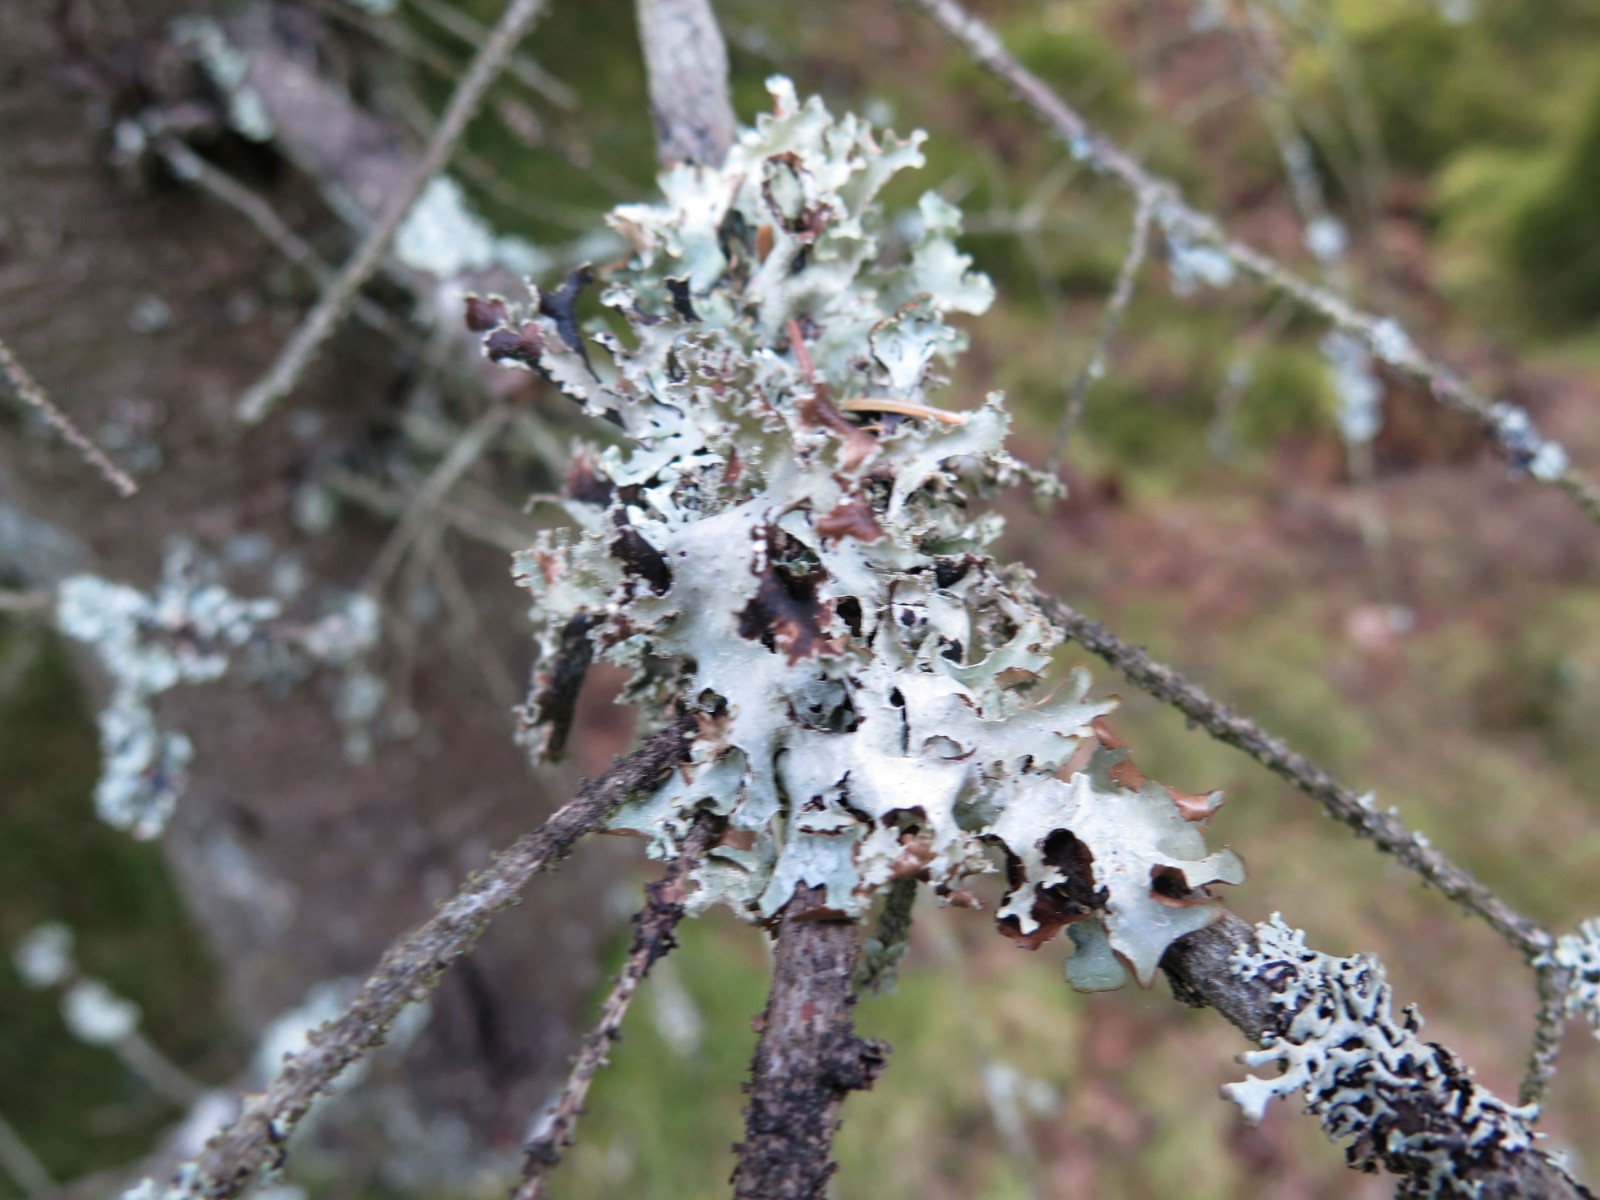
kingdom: Fungi
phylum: Ascomycota
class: Lecanoromycetes
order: Lecanorales
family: Parmeliaceae
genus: Platismatia
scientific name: Platismatia glauca
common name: blågrå papirlav
